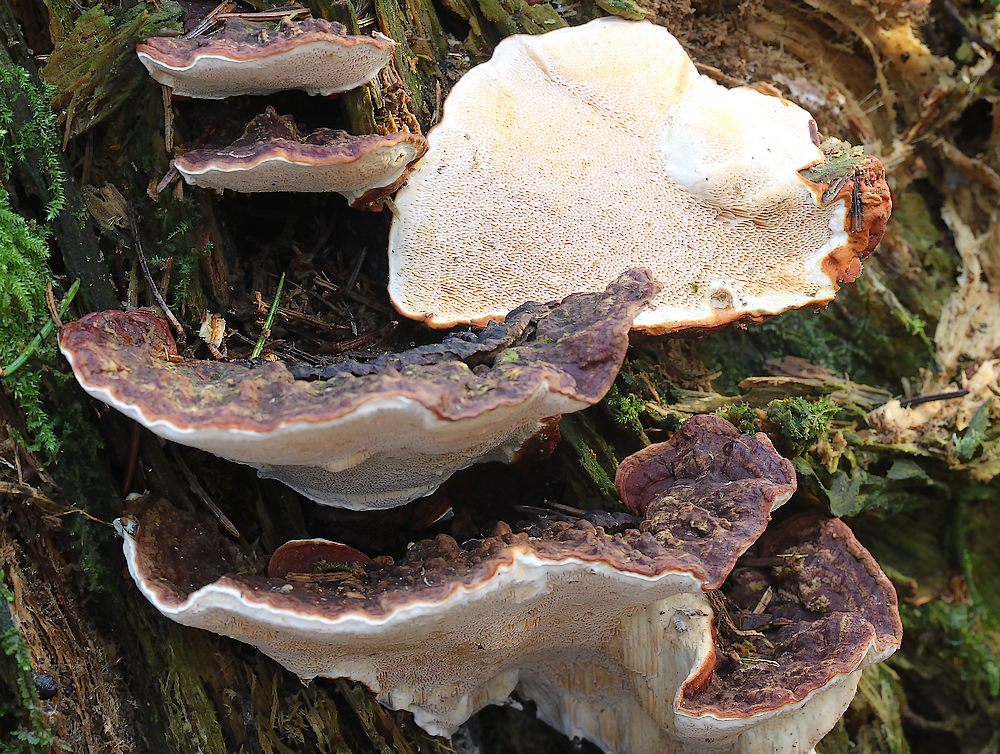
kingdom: Fungi
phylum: Basidiomycota
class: Agaricomycetes
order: Russulales
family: Bondarzewiaceae
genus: Heterobasidion
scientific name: Heterobasidion
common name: rodfordærver
